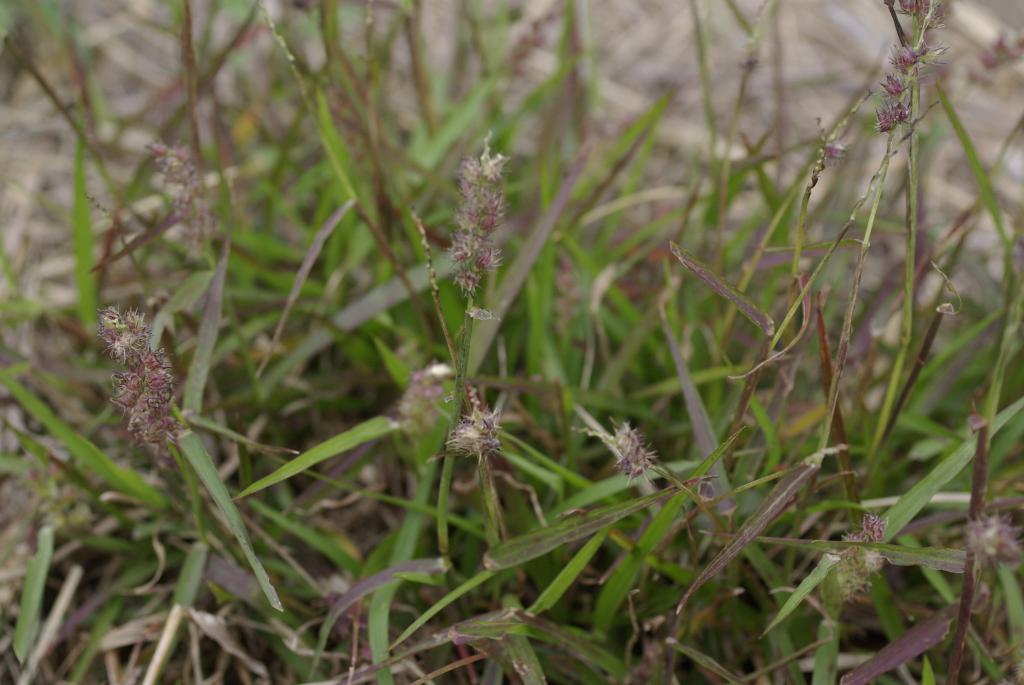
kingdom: Plantae
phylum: Tracheophyta
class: Liliopsida
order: Poales
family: Poaceae
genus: Cenchrus
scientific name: Cenchrus echinatus
